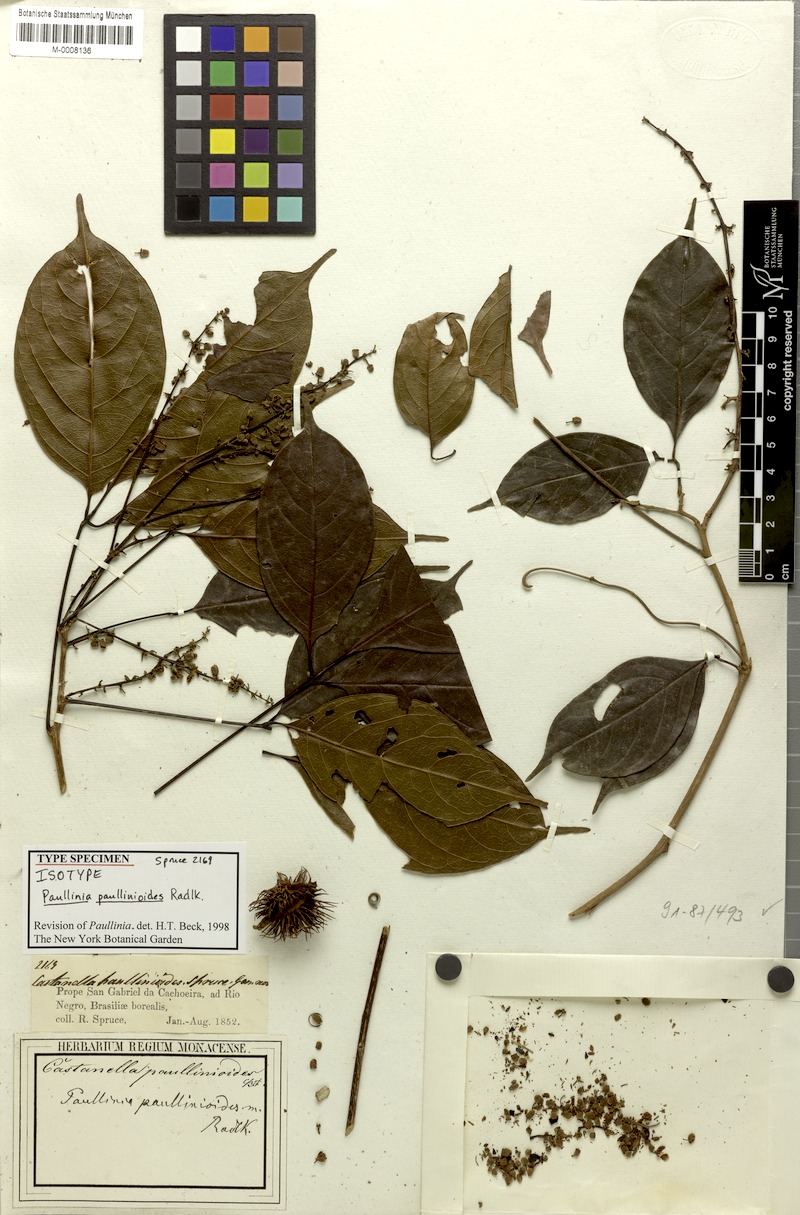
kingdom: Plantae
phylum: Tracheophyta
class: Magnoliopsida
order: Sapindales
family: Sapindaceae
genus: Paullinia
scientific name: Paullinia granatensis
